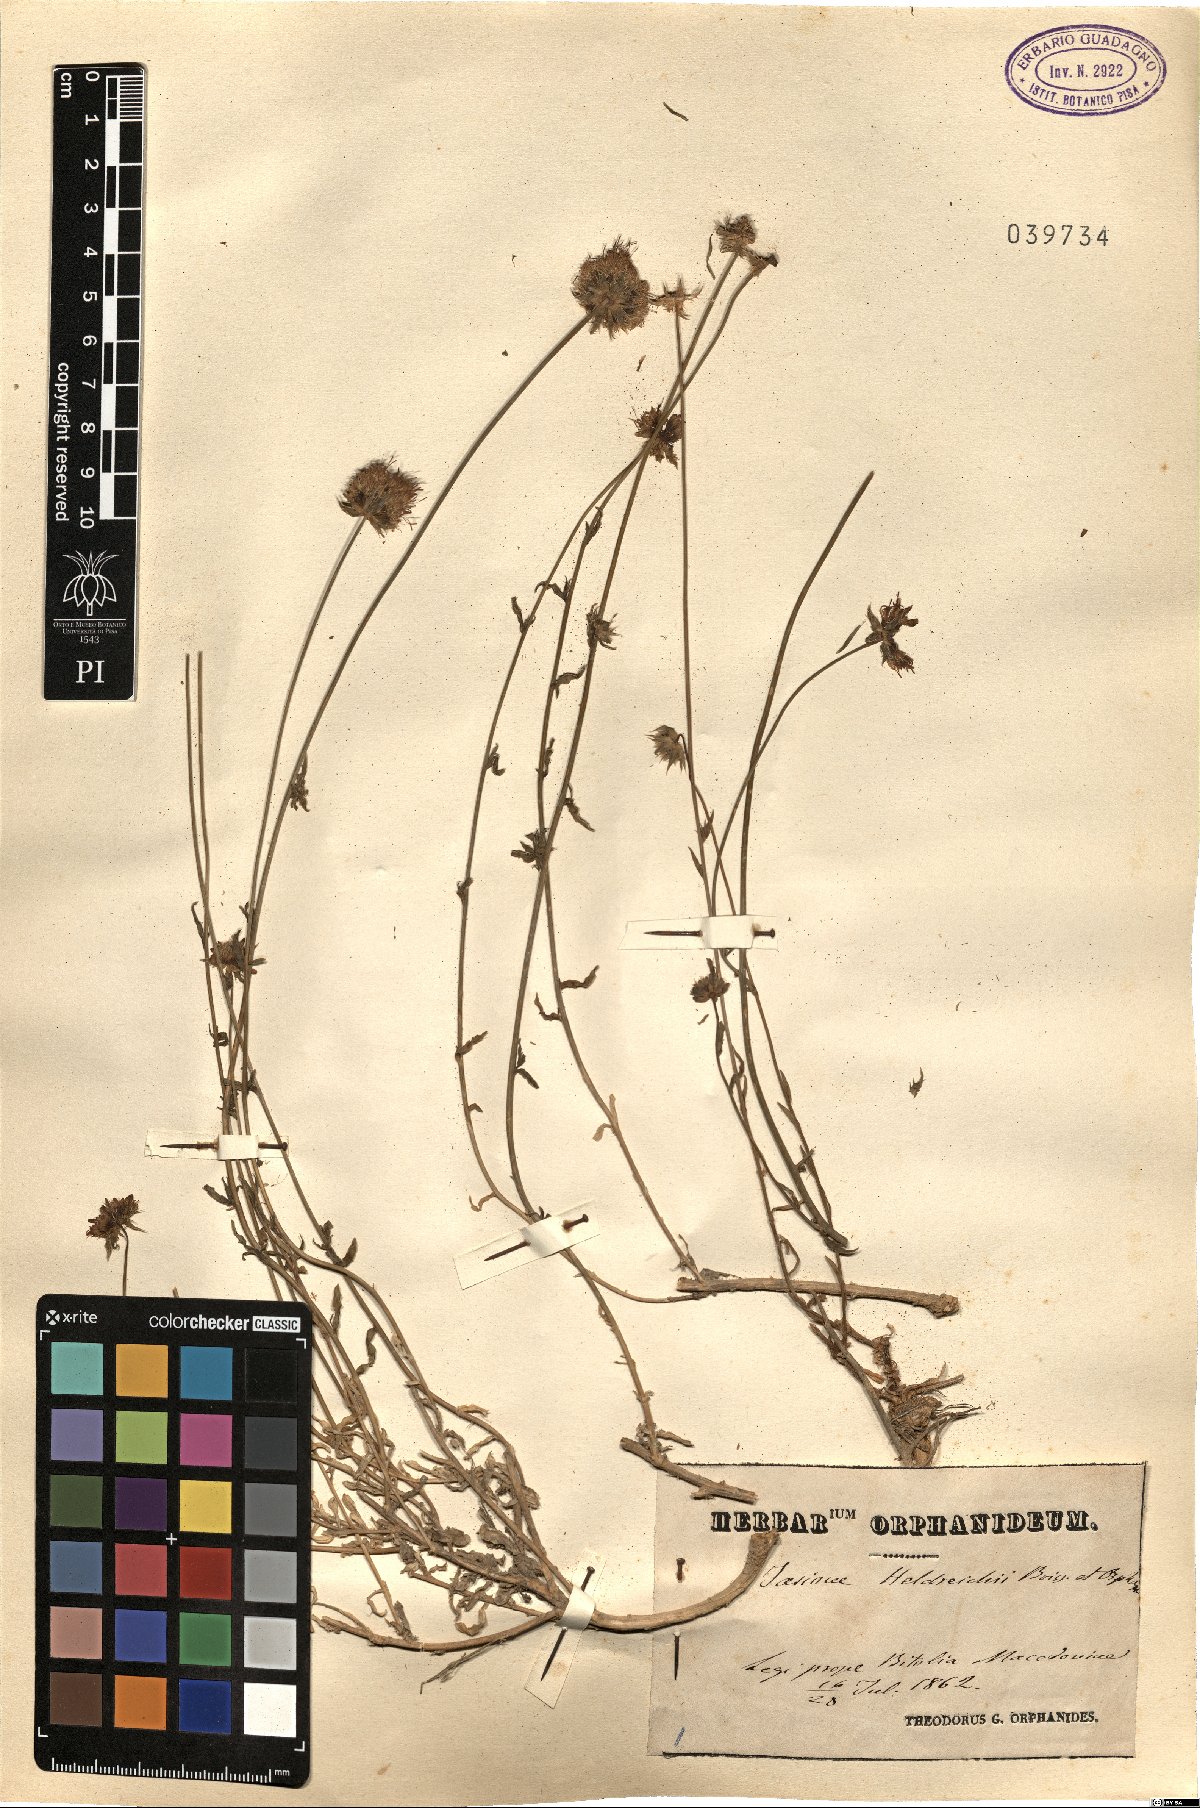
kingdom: Plantae
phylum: Tracheophyta
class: Magnoliopsida
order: Asterales
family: Campanulaceae
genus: Jasione
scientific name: Jasione heldreichii
